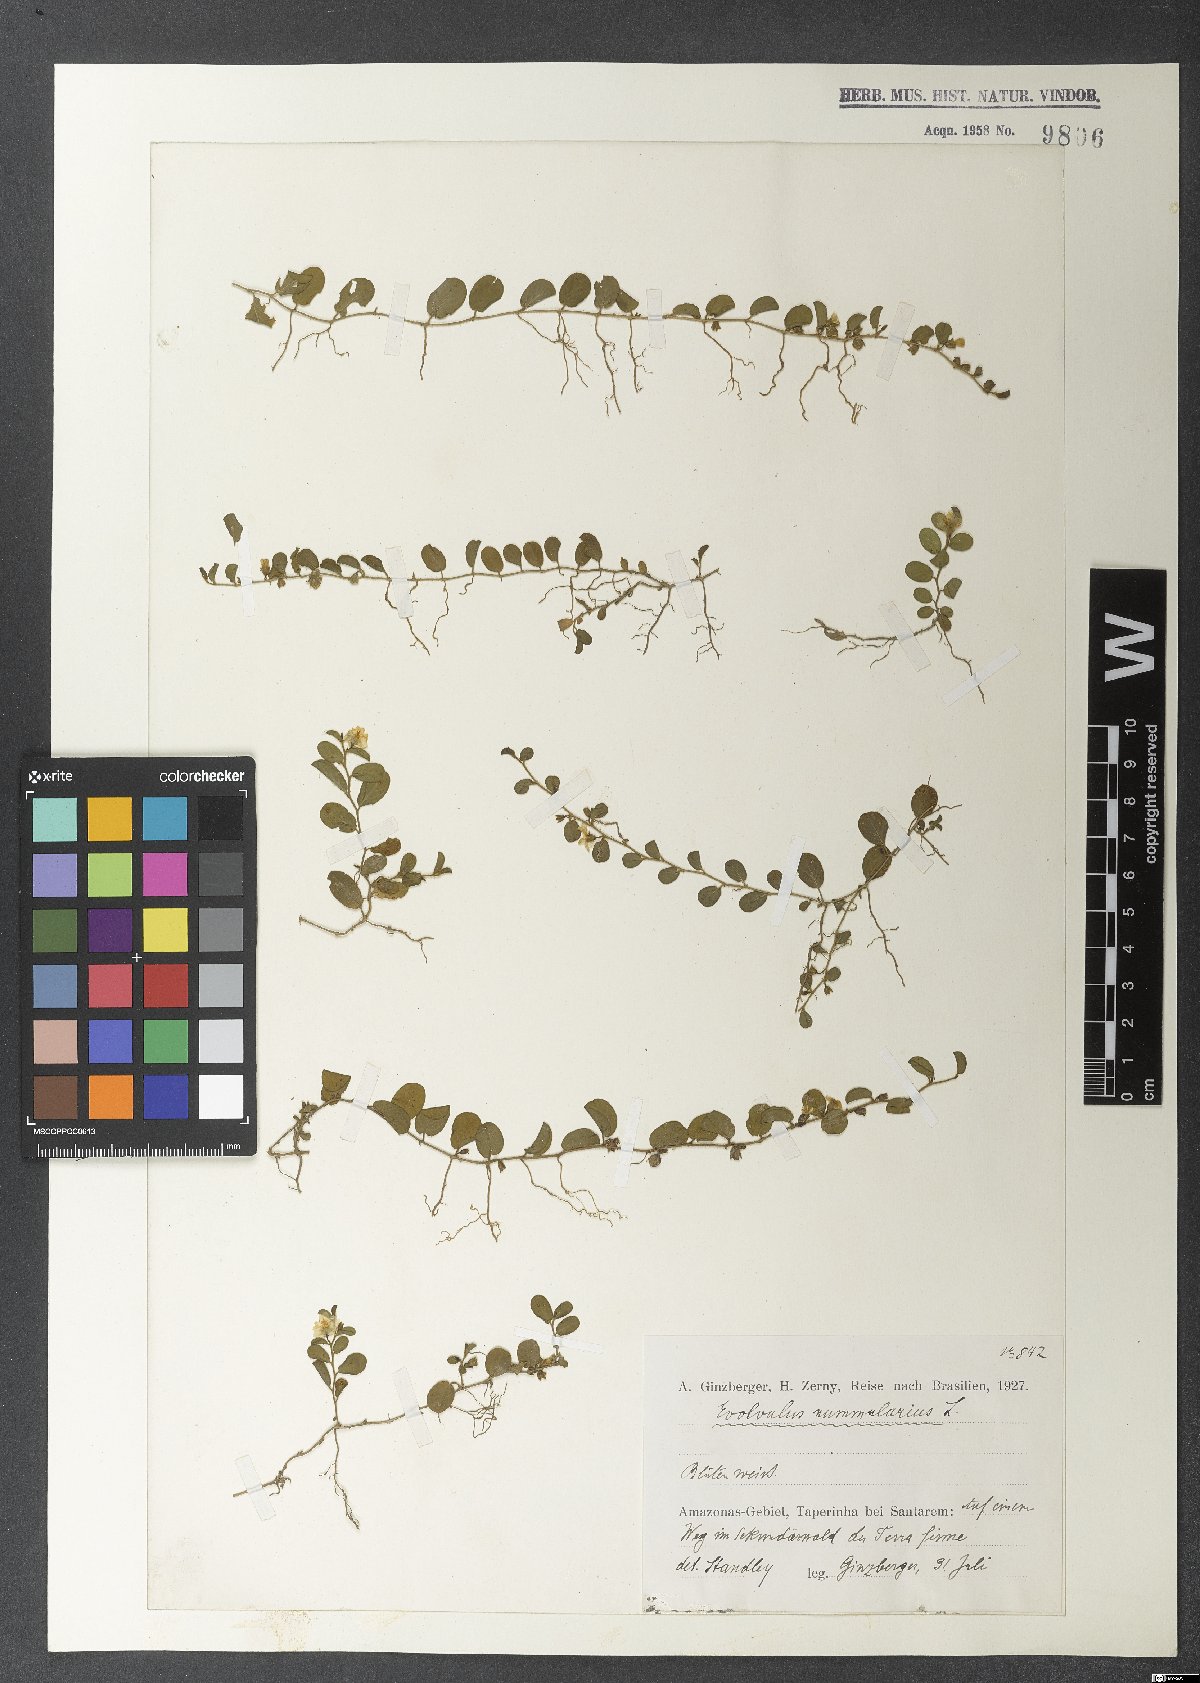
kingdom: Plantae
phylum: Tracheophyta
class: Magnoliopsida
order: Solanales
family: Convolvulaceae
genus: Evolvulus
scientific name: Evolvulus nummularius
